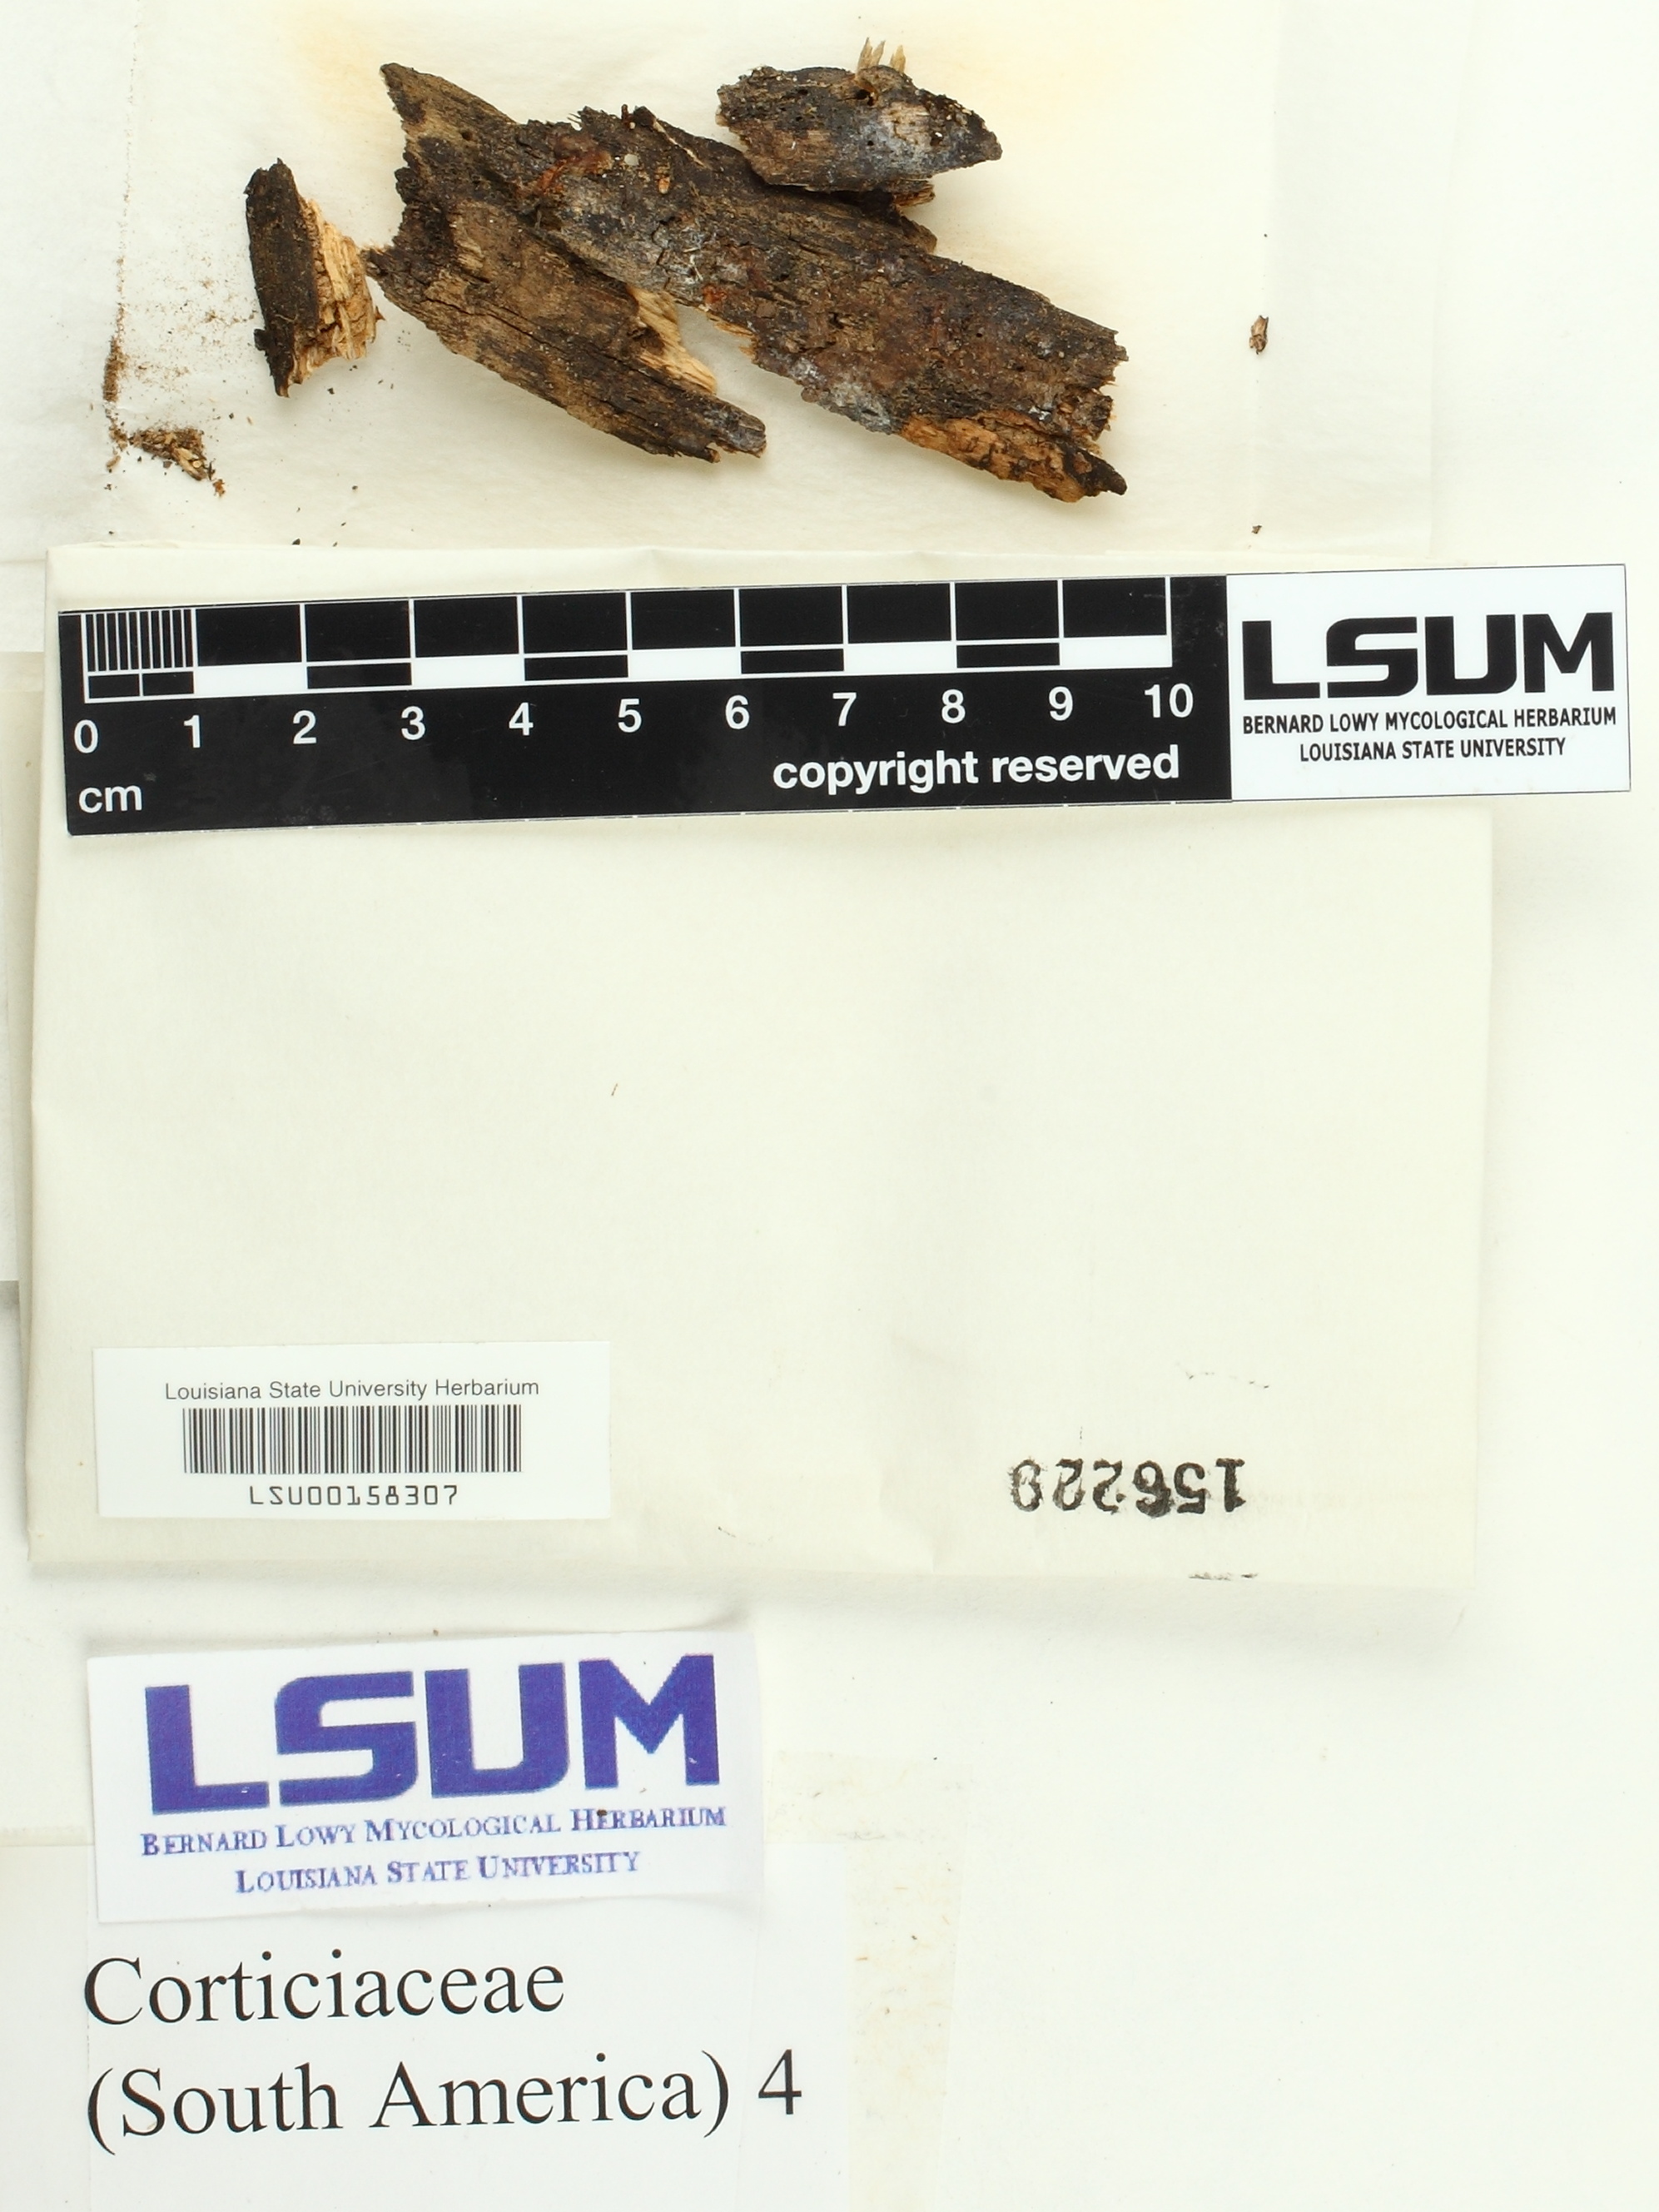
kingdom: Fungi
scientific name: Fungi
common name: Fungi
